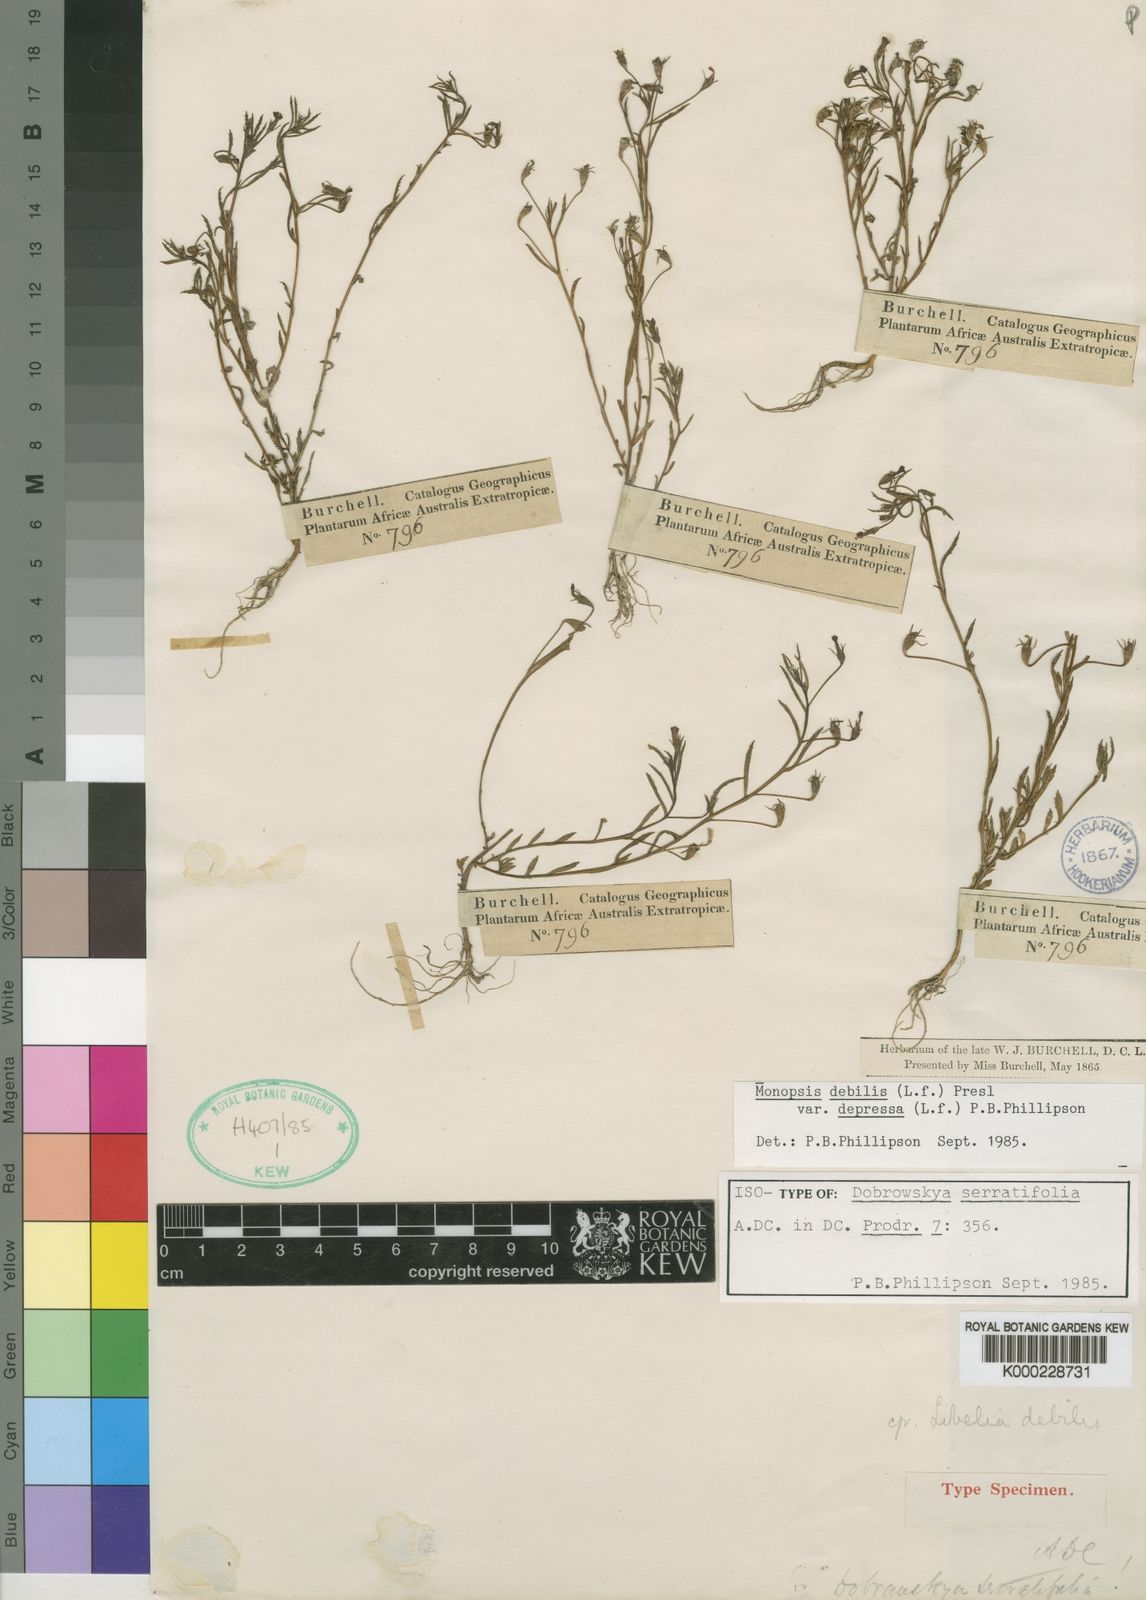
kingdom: Plantae
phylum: Tracheophyta
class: Magnoliopsida
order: Asterales
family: Campanulaceae
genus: Monopsis
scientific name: Monopsis debilis
